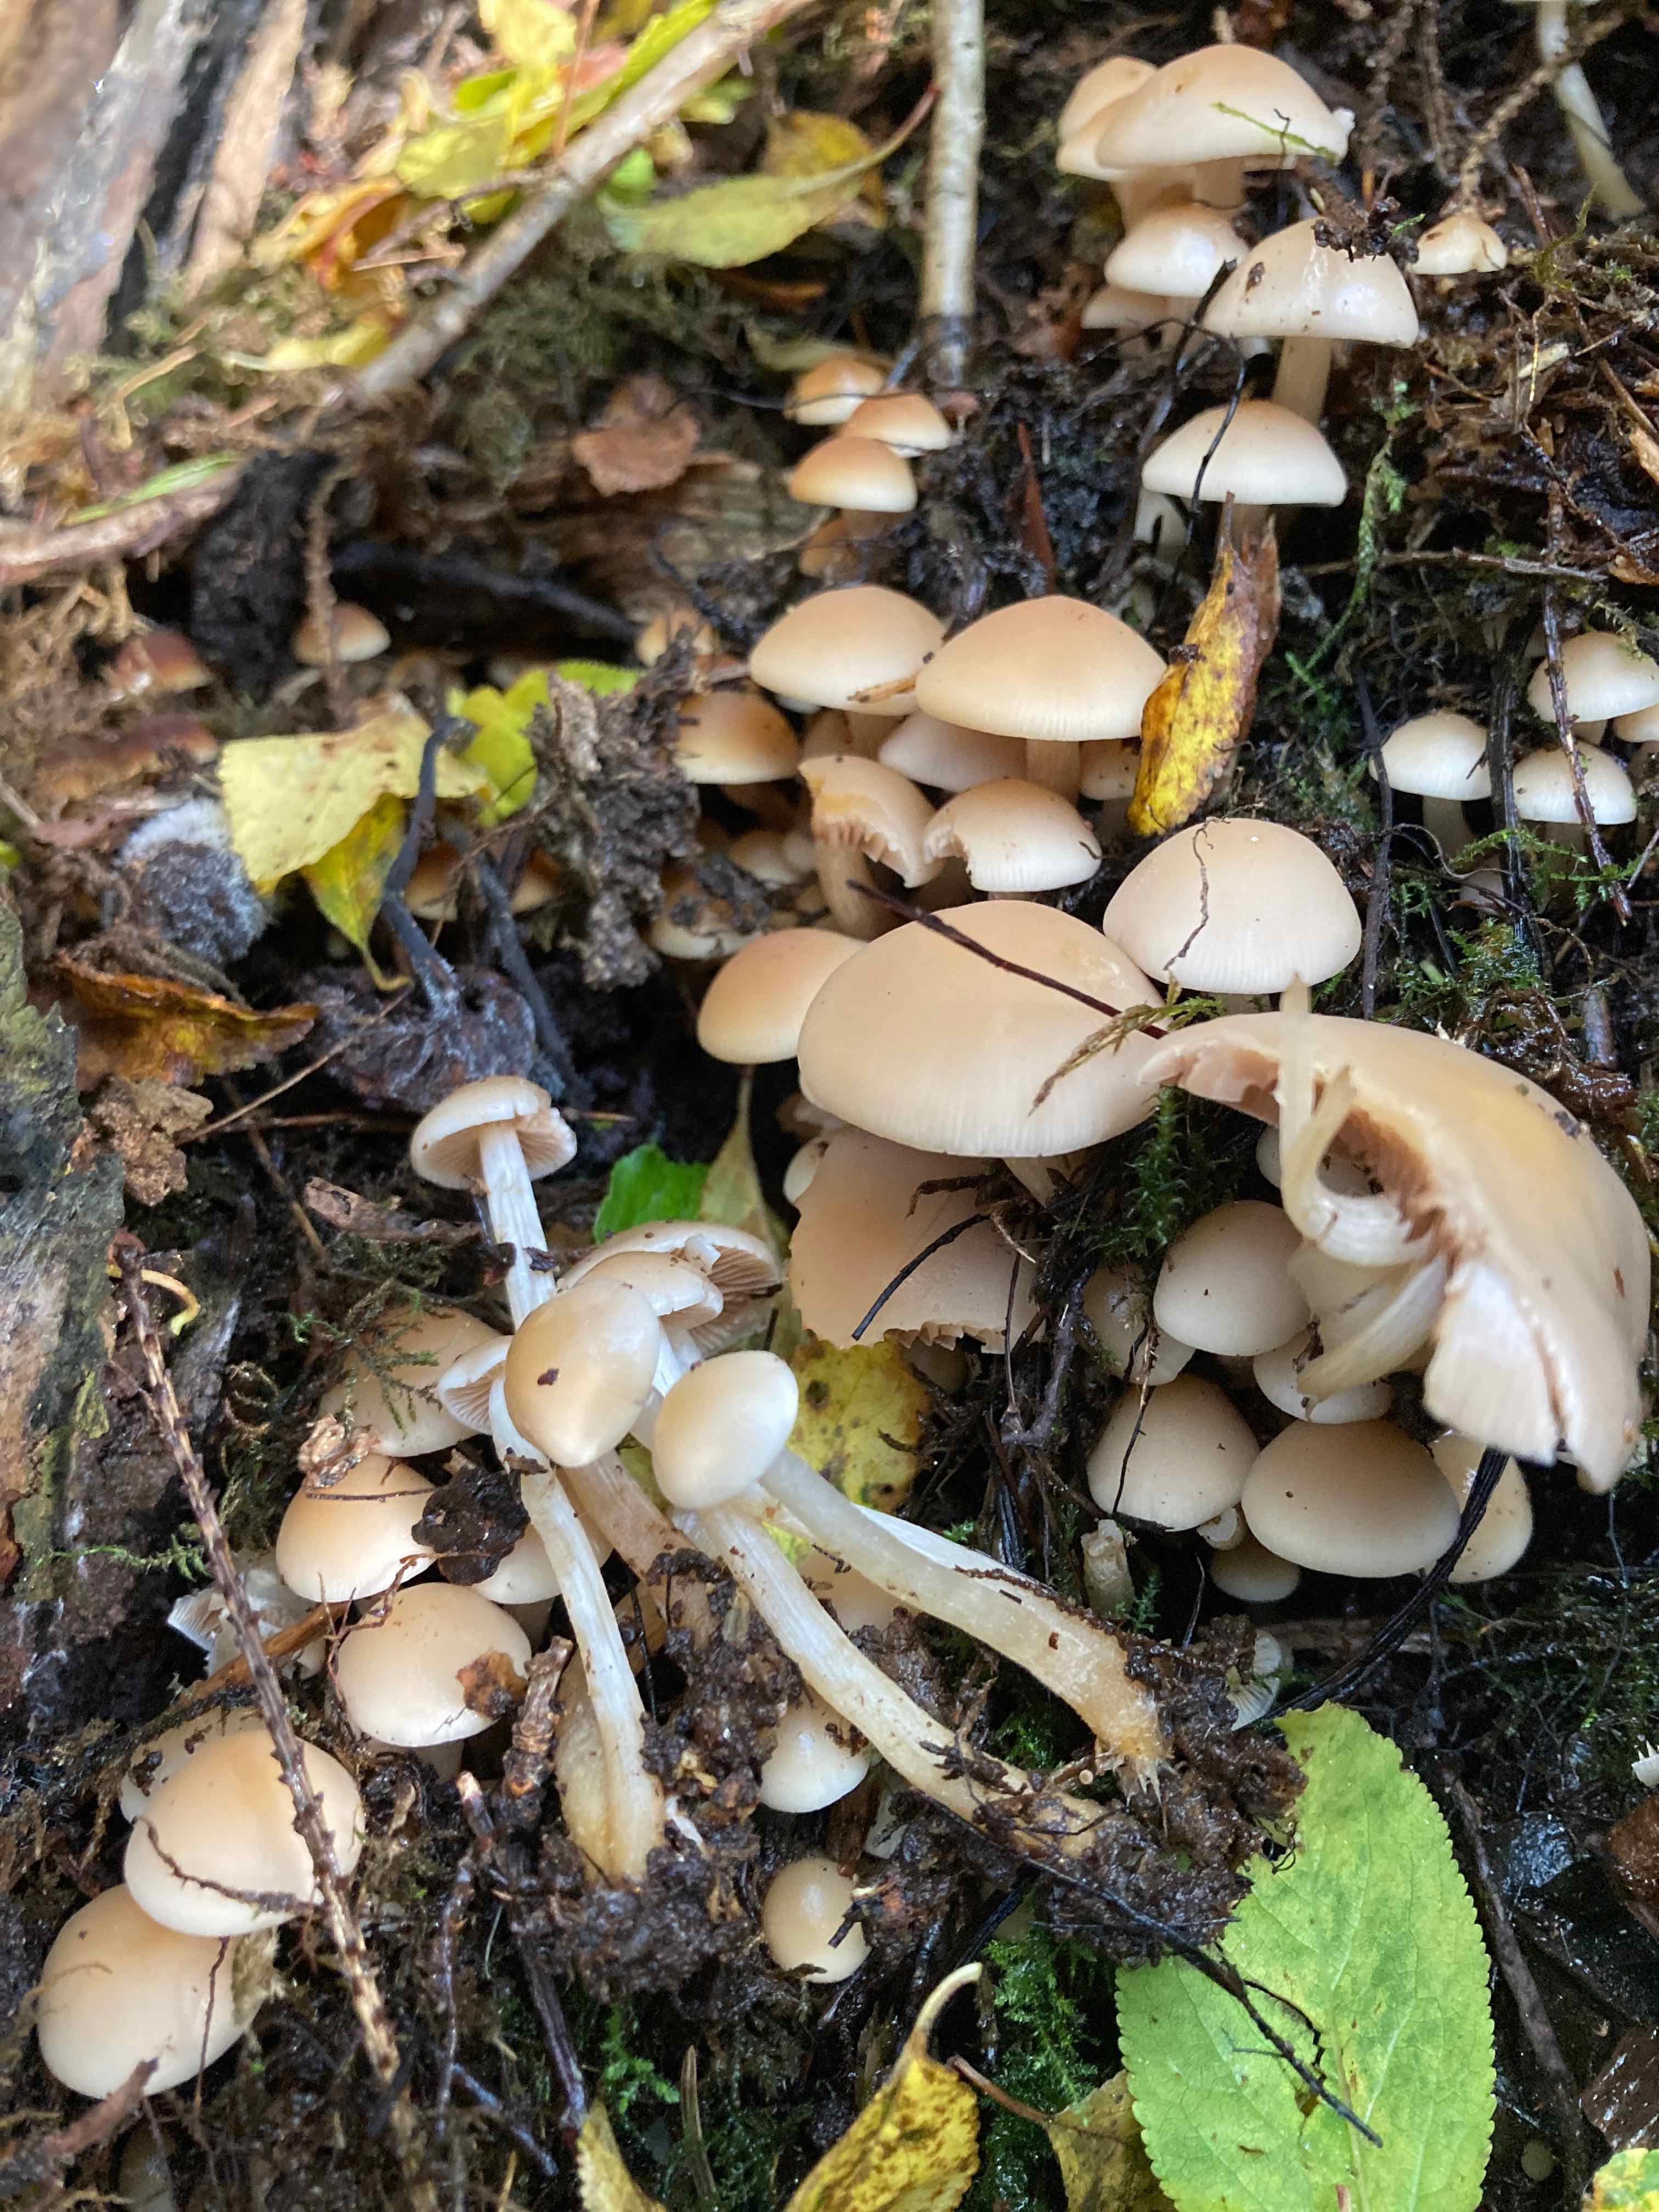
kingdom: Fungi
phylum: Basidiomycota
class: Agaricomycetes
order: Agaricales
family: Psathyrellaceae
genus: Homophron
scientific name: Homophron cernuum
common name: hvidlig mørkhat
